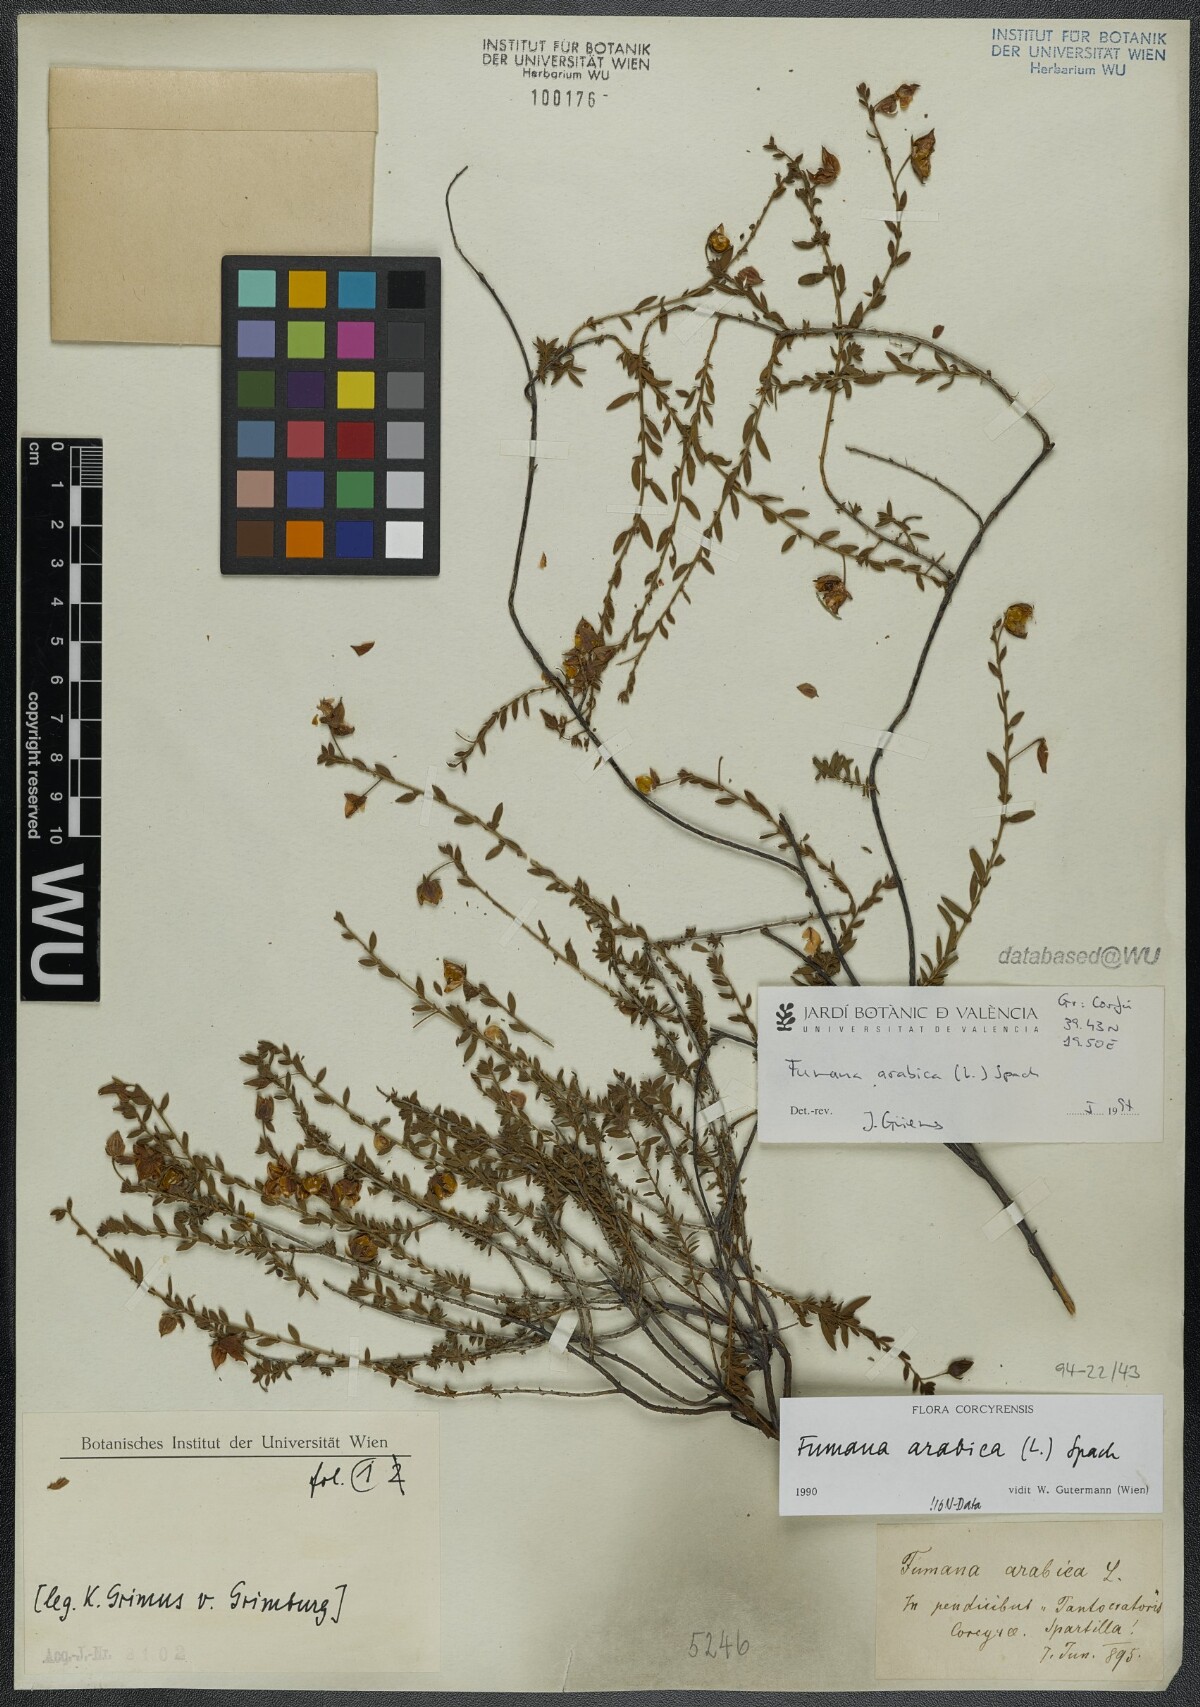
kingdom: Plantae
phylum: Tracheophyta
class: Magnoliopsida
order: Malvales
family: Cistaceae
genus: Fumana
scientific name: Fumana arabica
